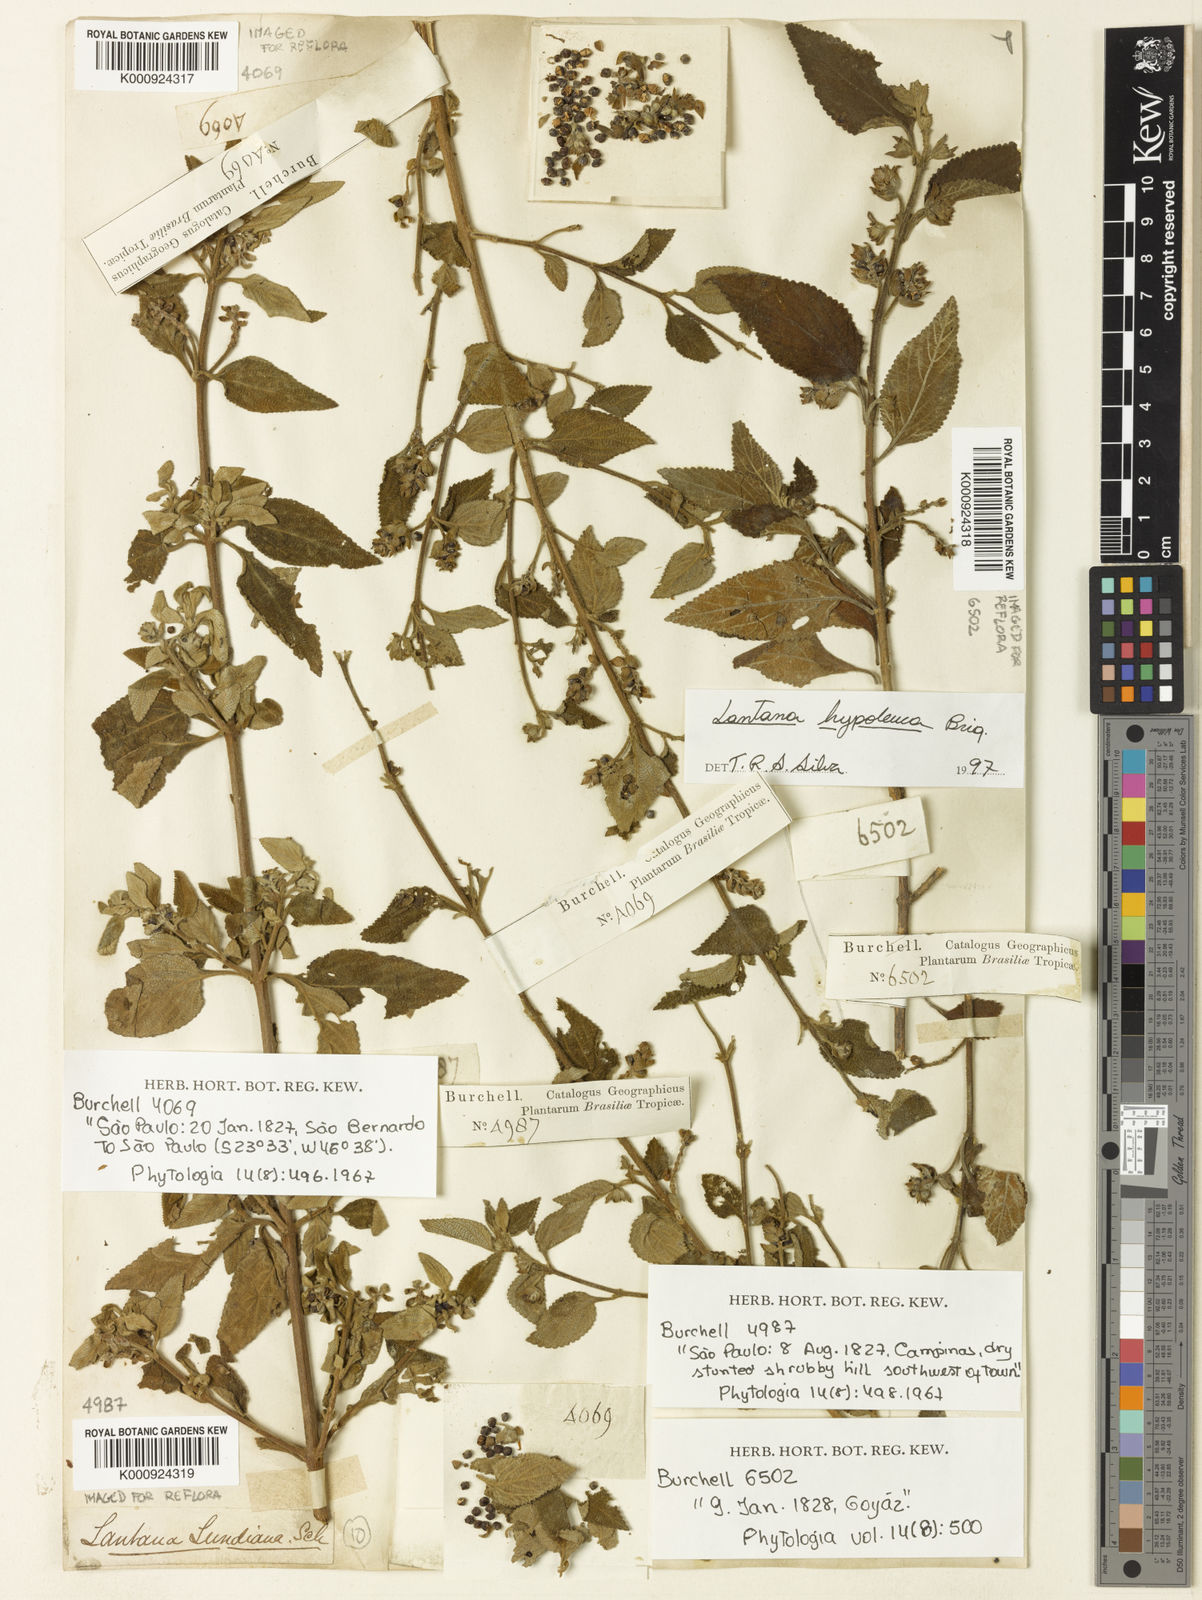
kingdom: Plantae
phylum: Tracheophyta
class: Magnoliopsida
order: Lamiales
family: Verbenaceae
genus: Lantana
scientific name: Lantana hypoleuca
